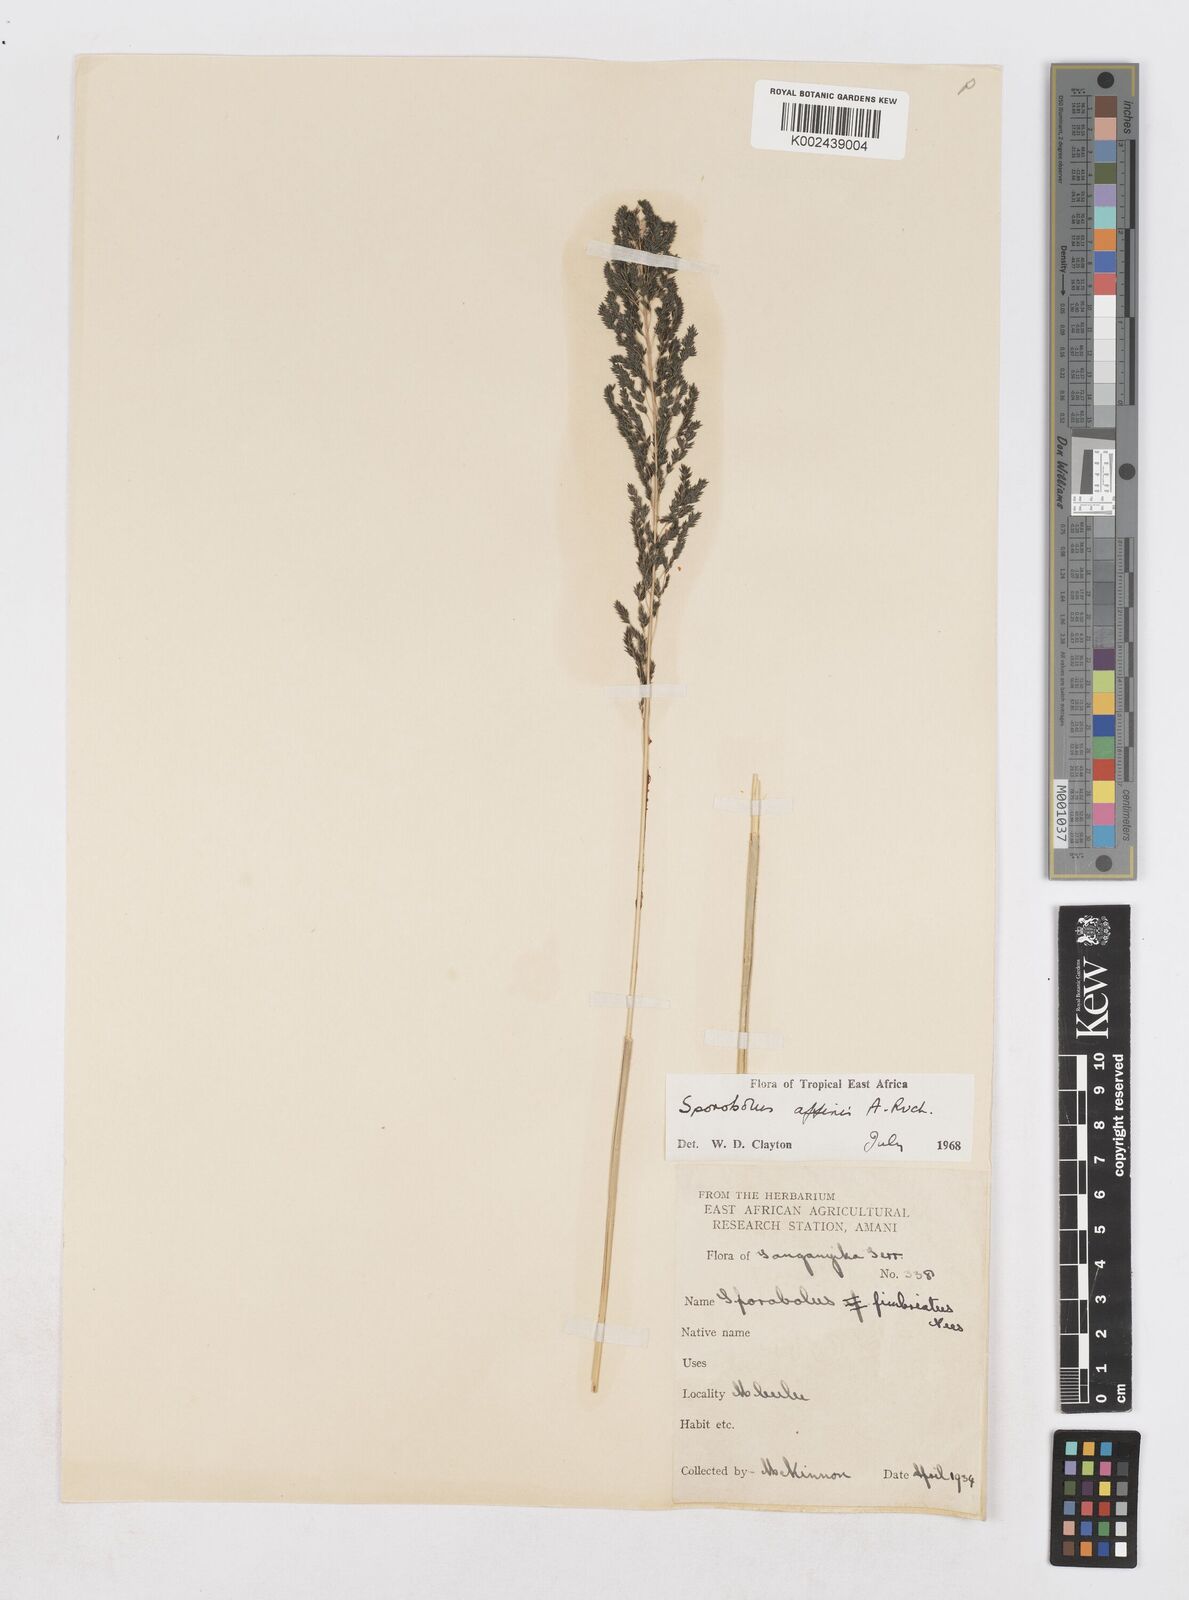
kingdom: Plantae
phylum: Tracheophyta
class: Liliopsida
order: Poales
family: Poaceae
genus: Sporobolus
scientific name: Sporobolus confinis
